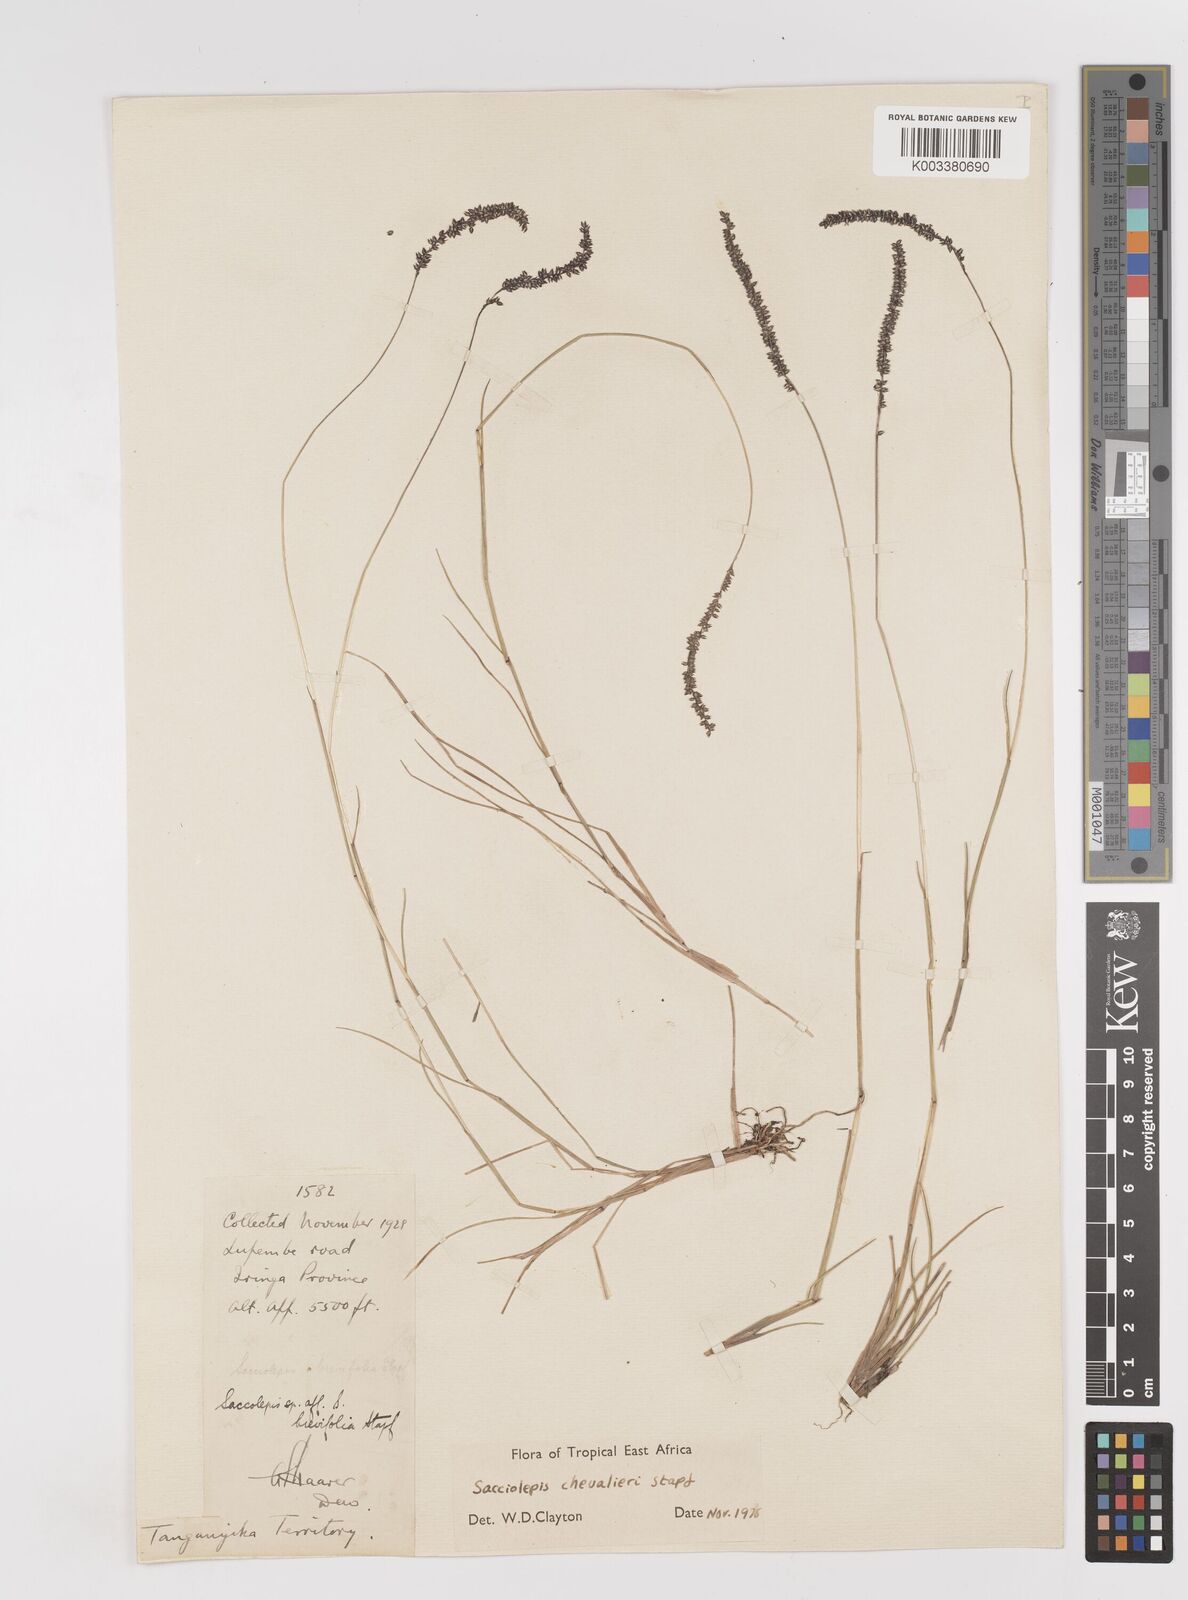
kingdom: Plantae
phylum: Tracheophyta
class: Liliopsida
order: Poales
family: Poaceae
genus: Sacciolepis
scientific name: Sacciolepis chevalieri
